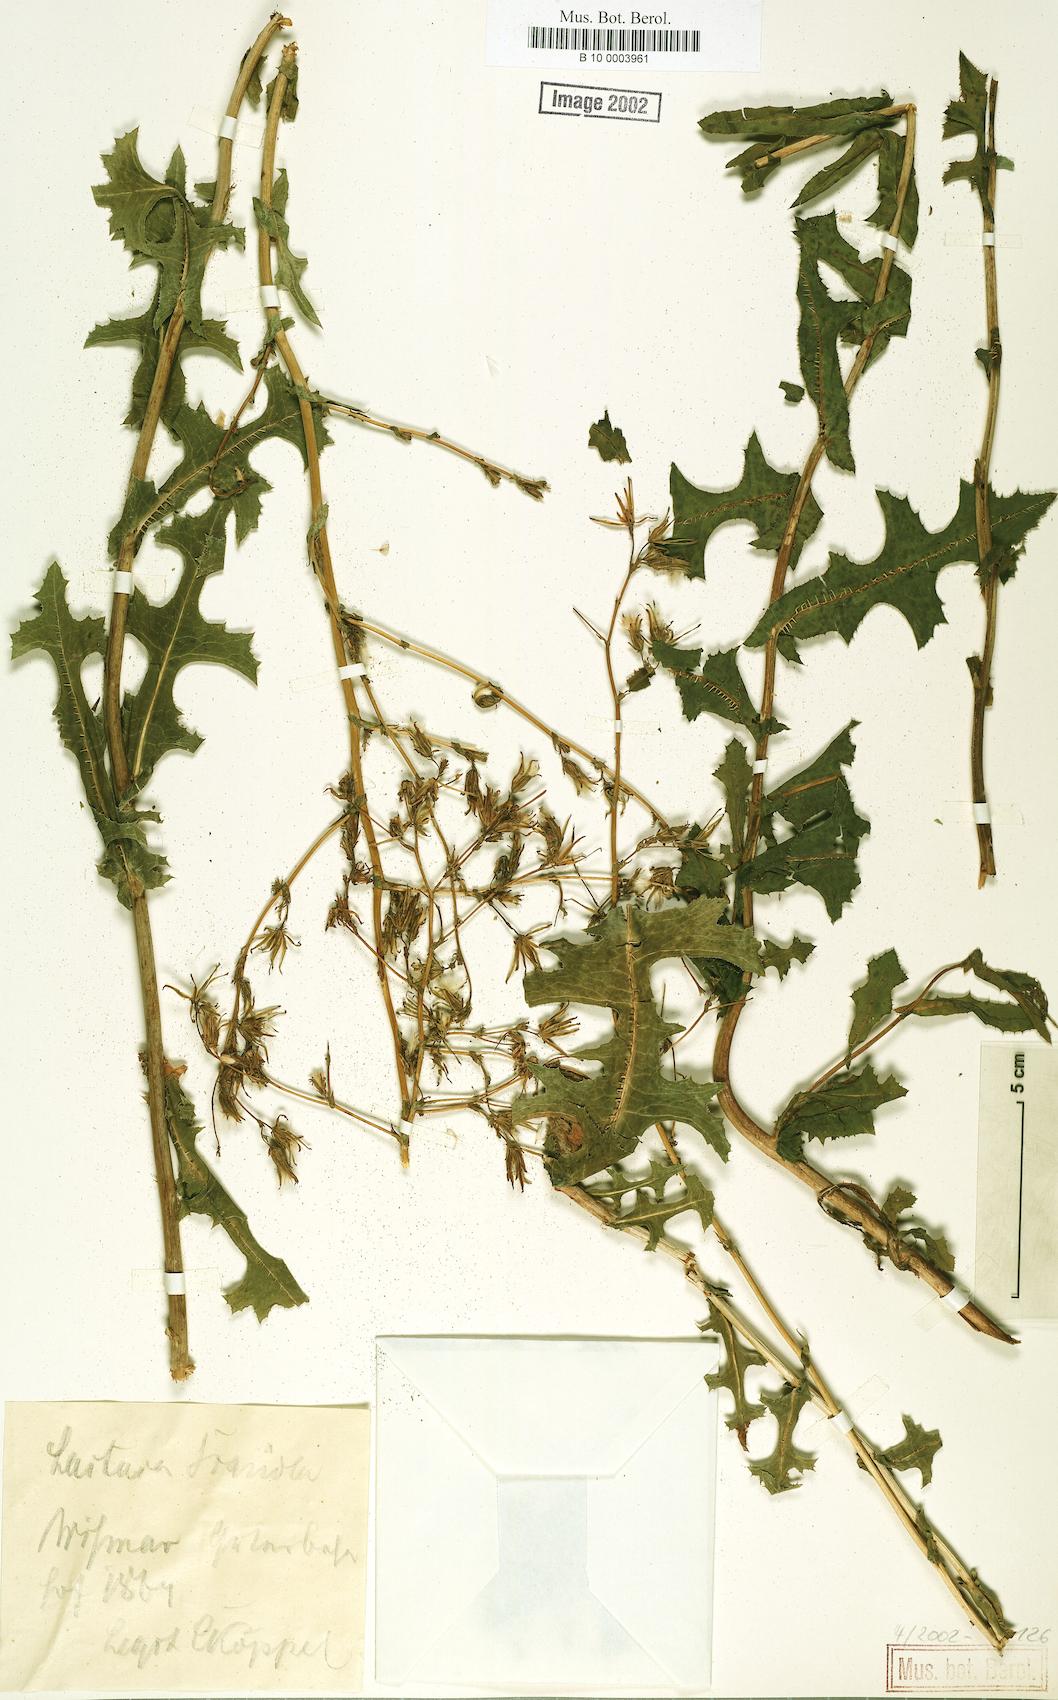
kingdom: Plantae
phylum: Tracheophyta
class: Magnoliopsida
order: Asterales
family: Asteraceae
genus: Lactuca
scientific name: Lactuca serriola
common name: Prickly lettuce
